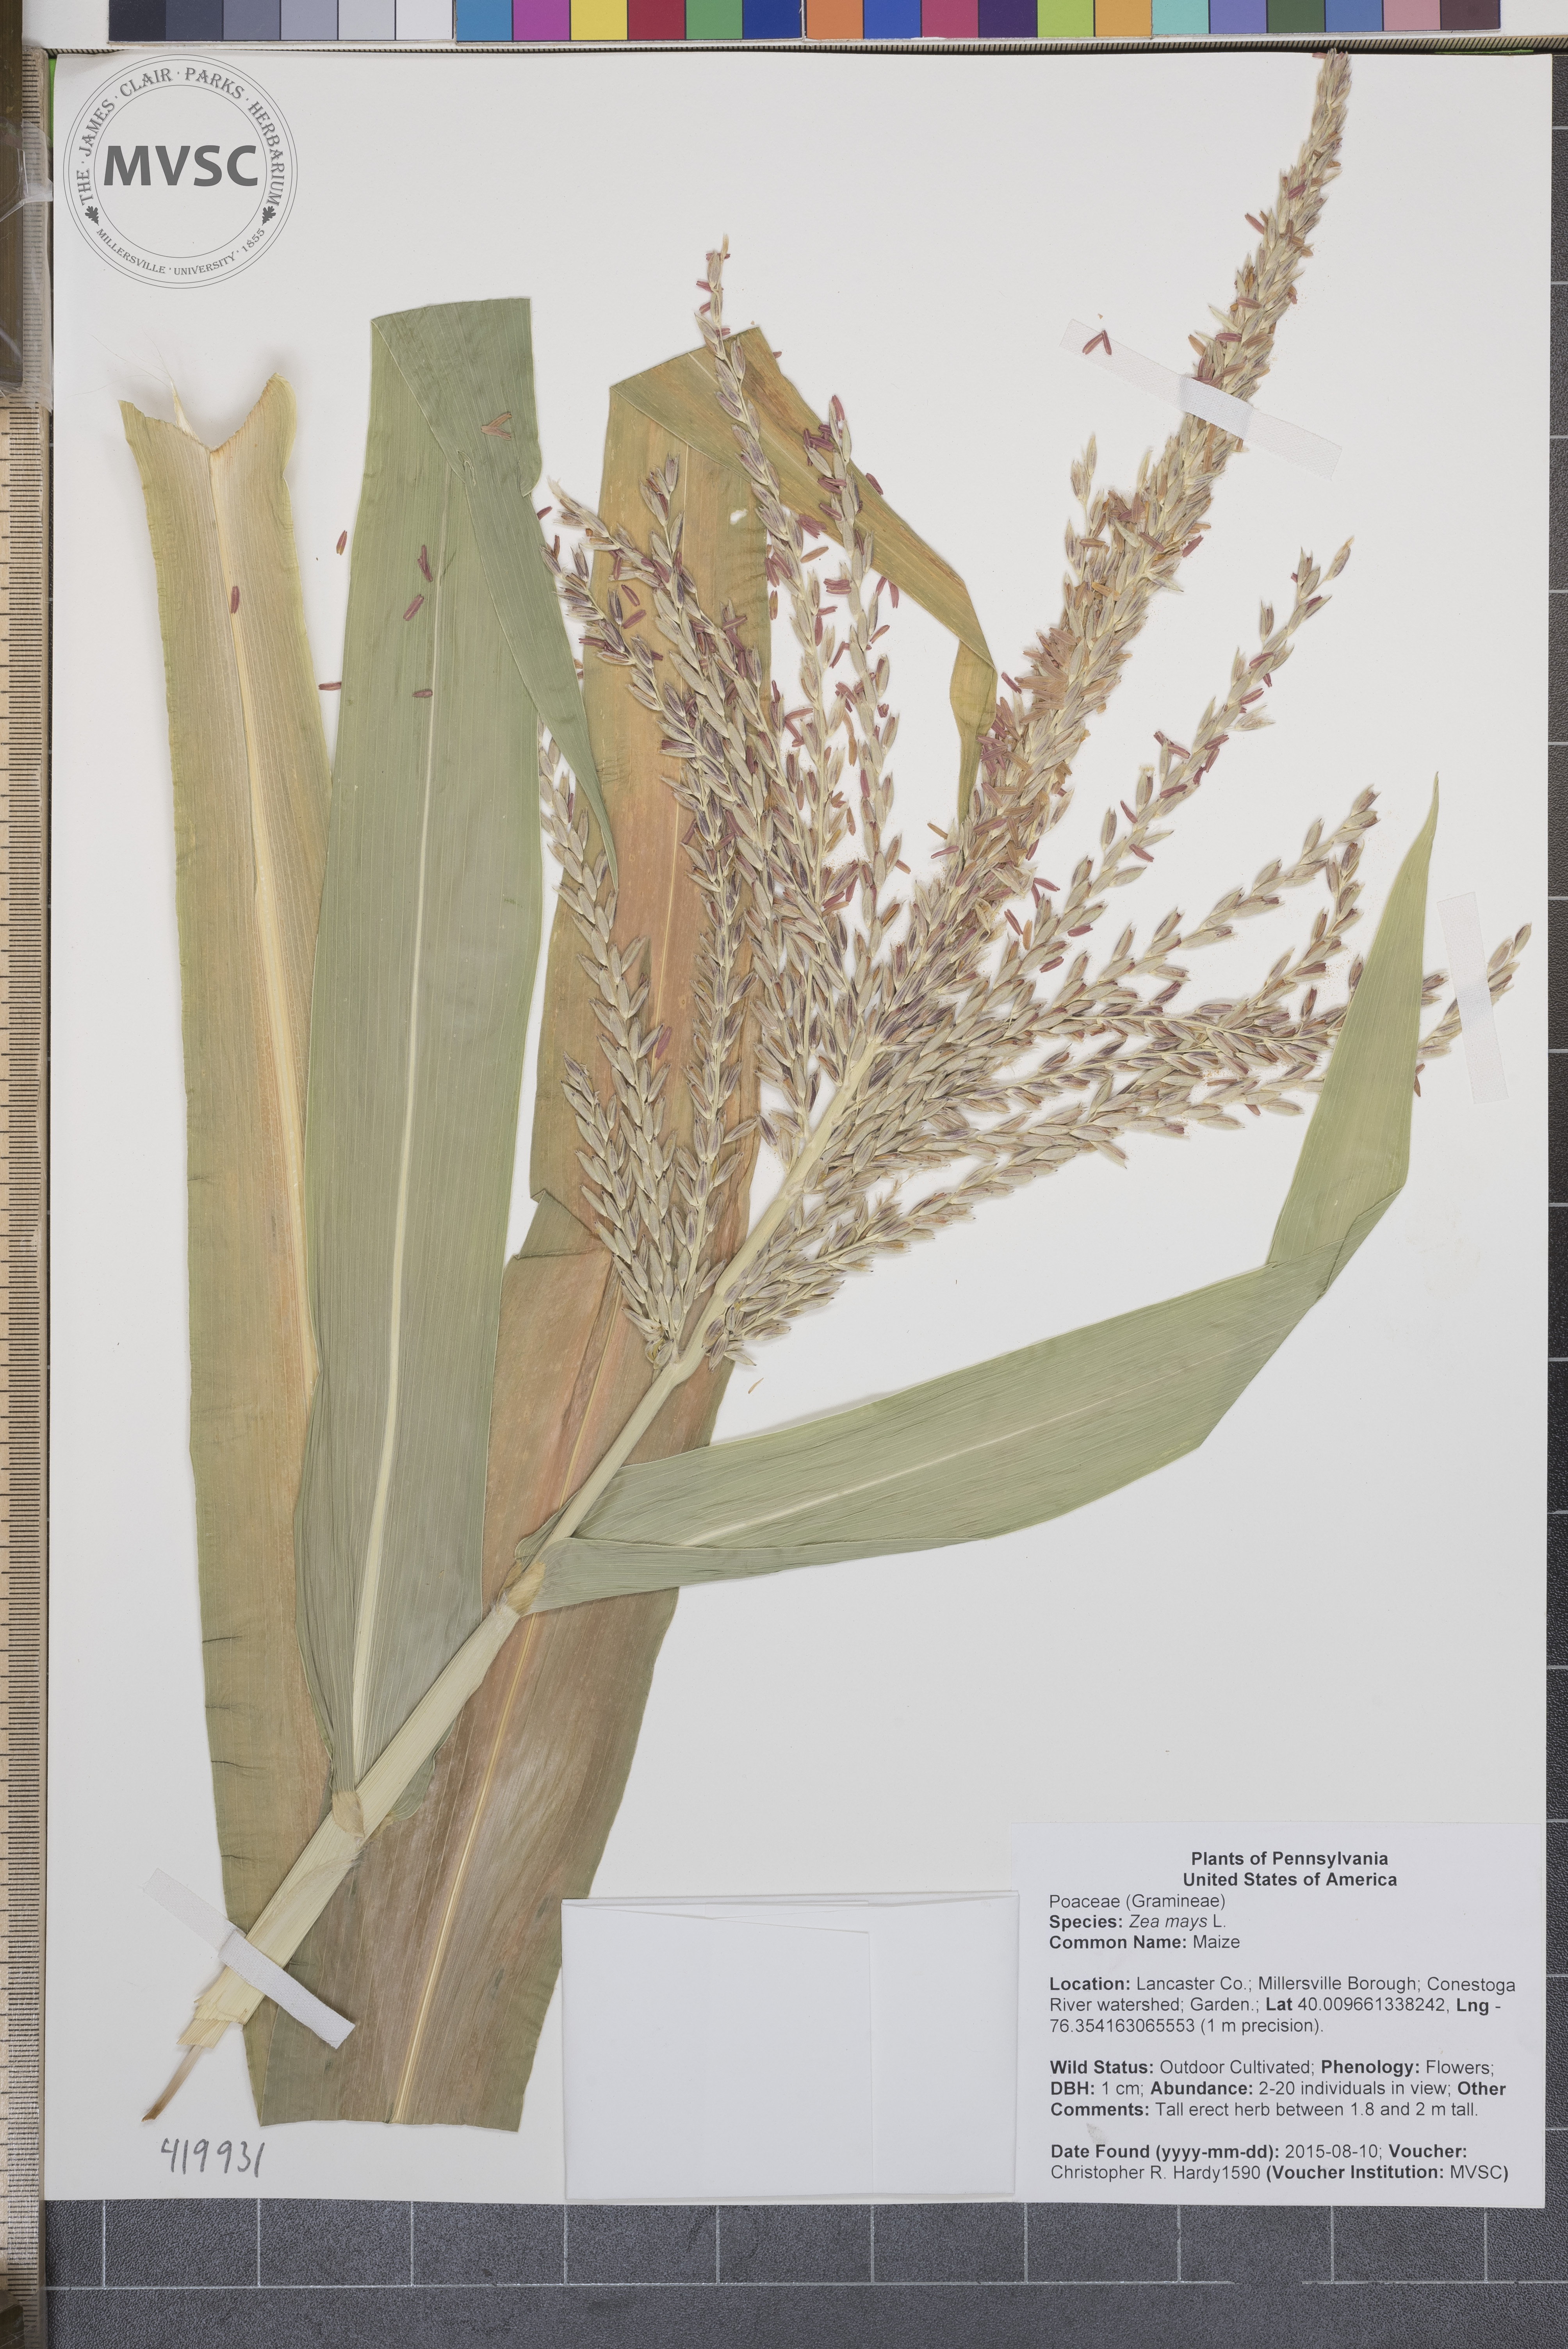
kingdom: Plantae
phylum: Tracheophyta
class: Liliopsida
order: Poales
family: Poaceae
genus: Zea
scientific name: Zea mays
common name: Maize
